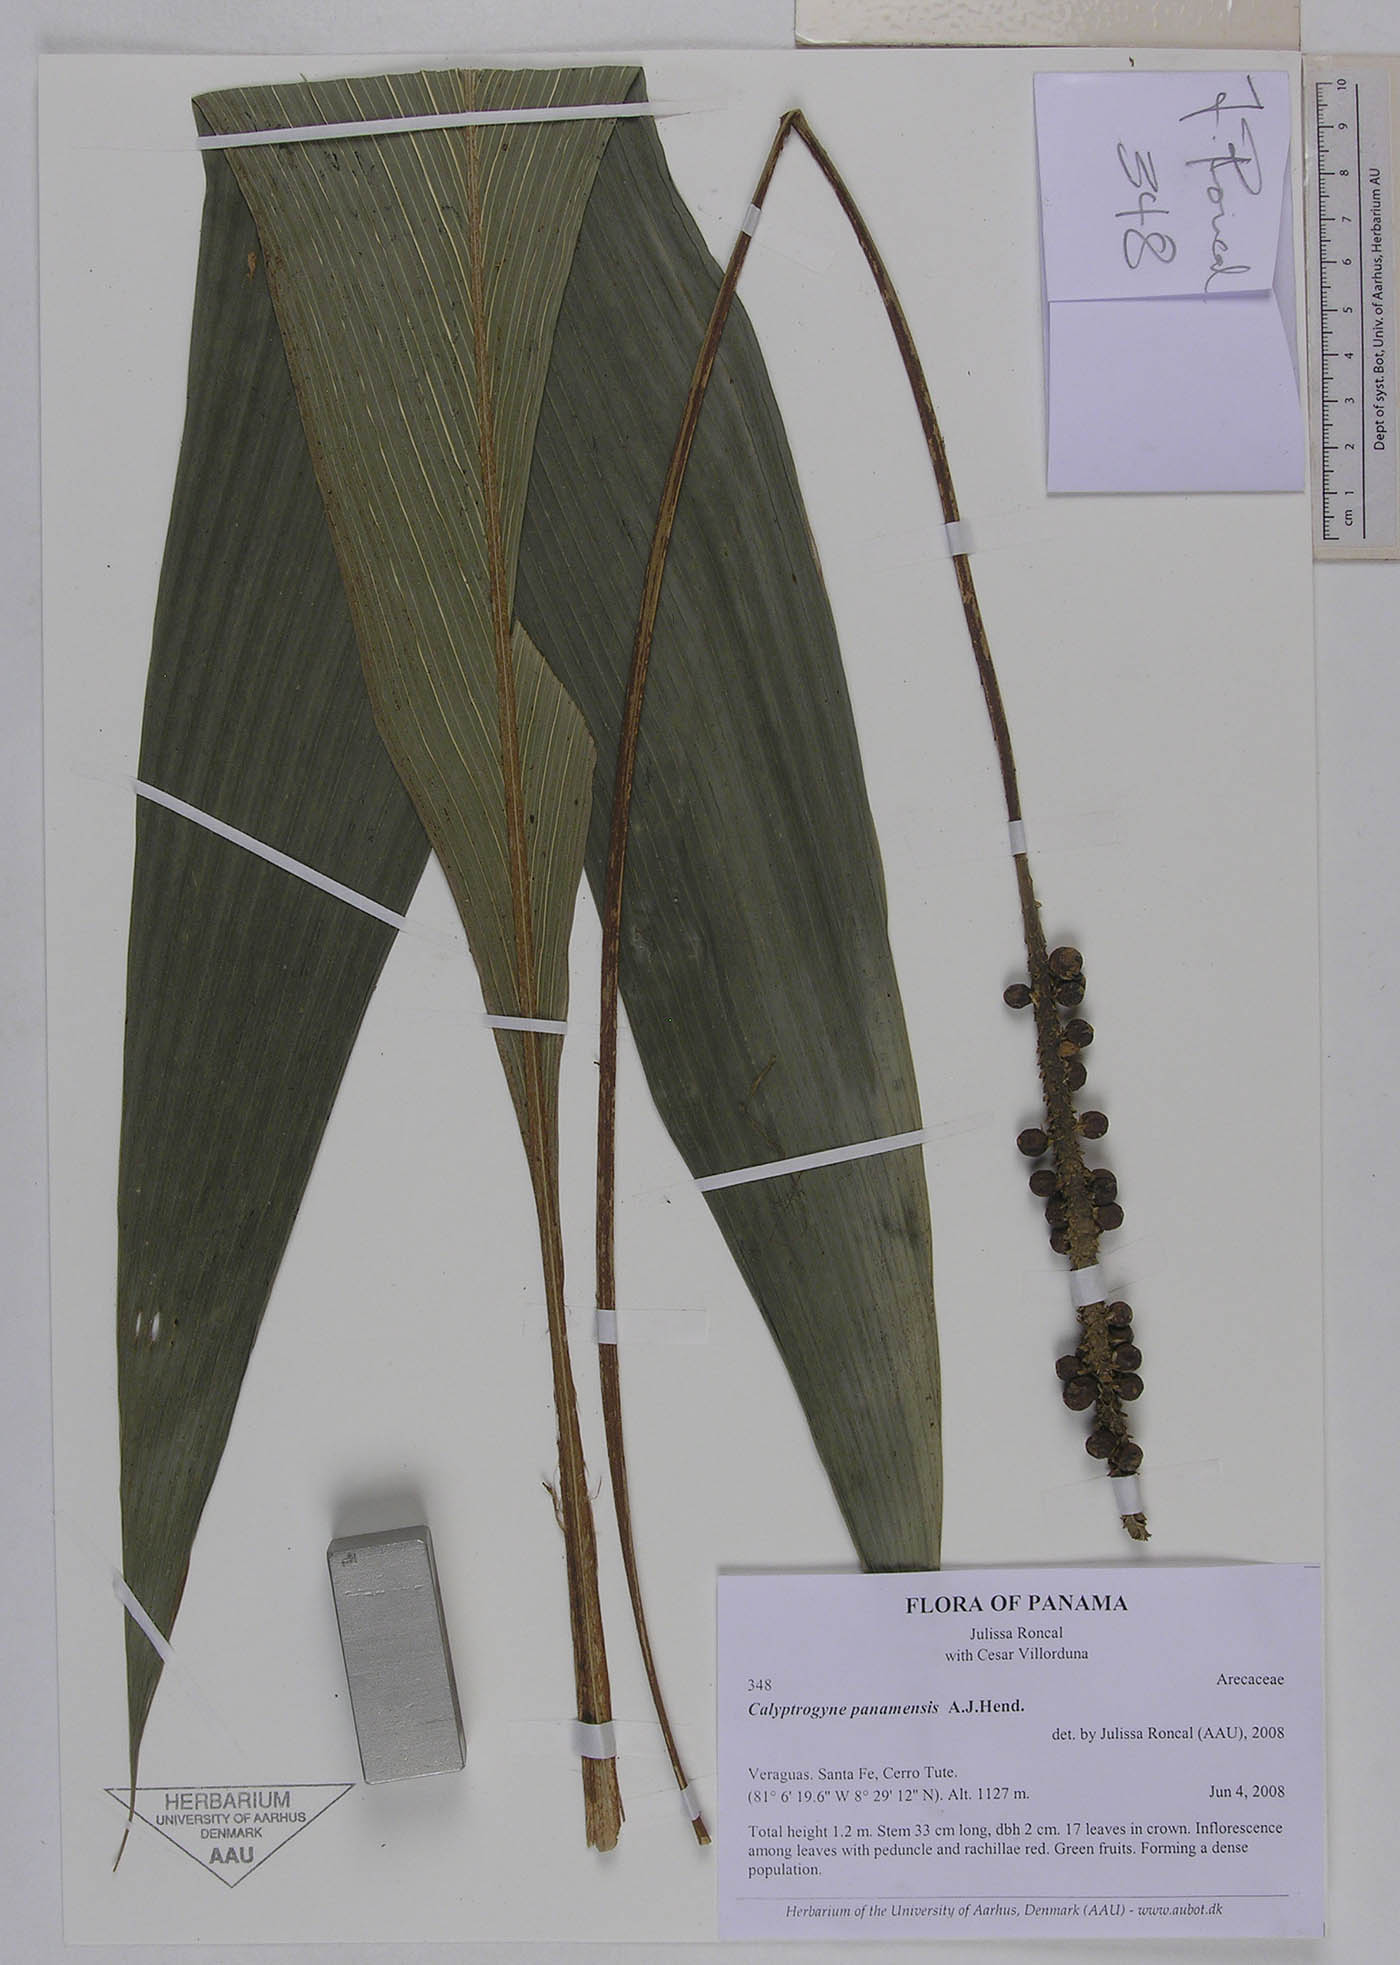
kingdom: Plantae
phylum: Tracheophyta
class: Liliopsida
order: Arecales
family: Arecaceae
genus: Calyptrogyne
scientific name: Calyptrogyne panamensis
